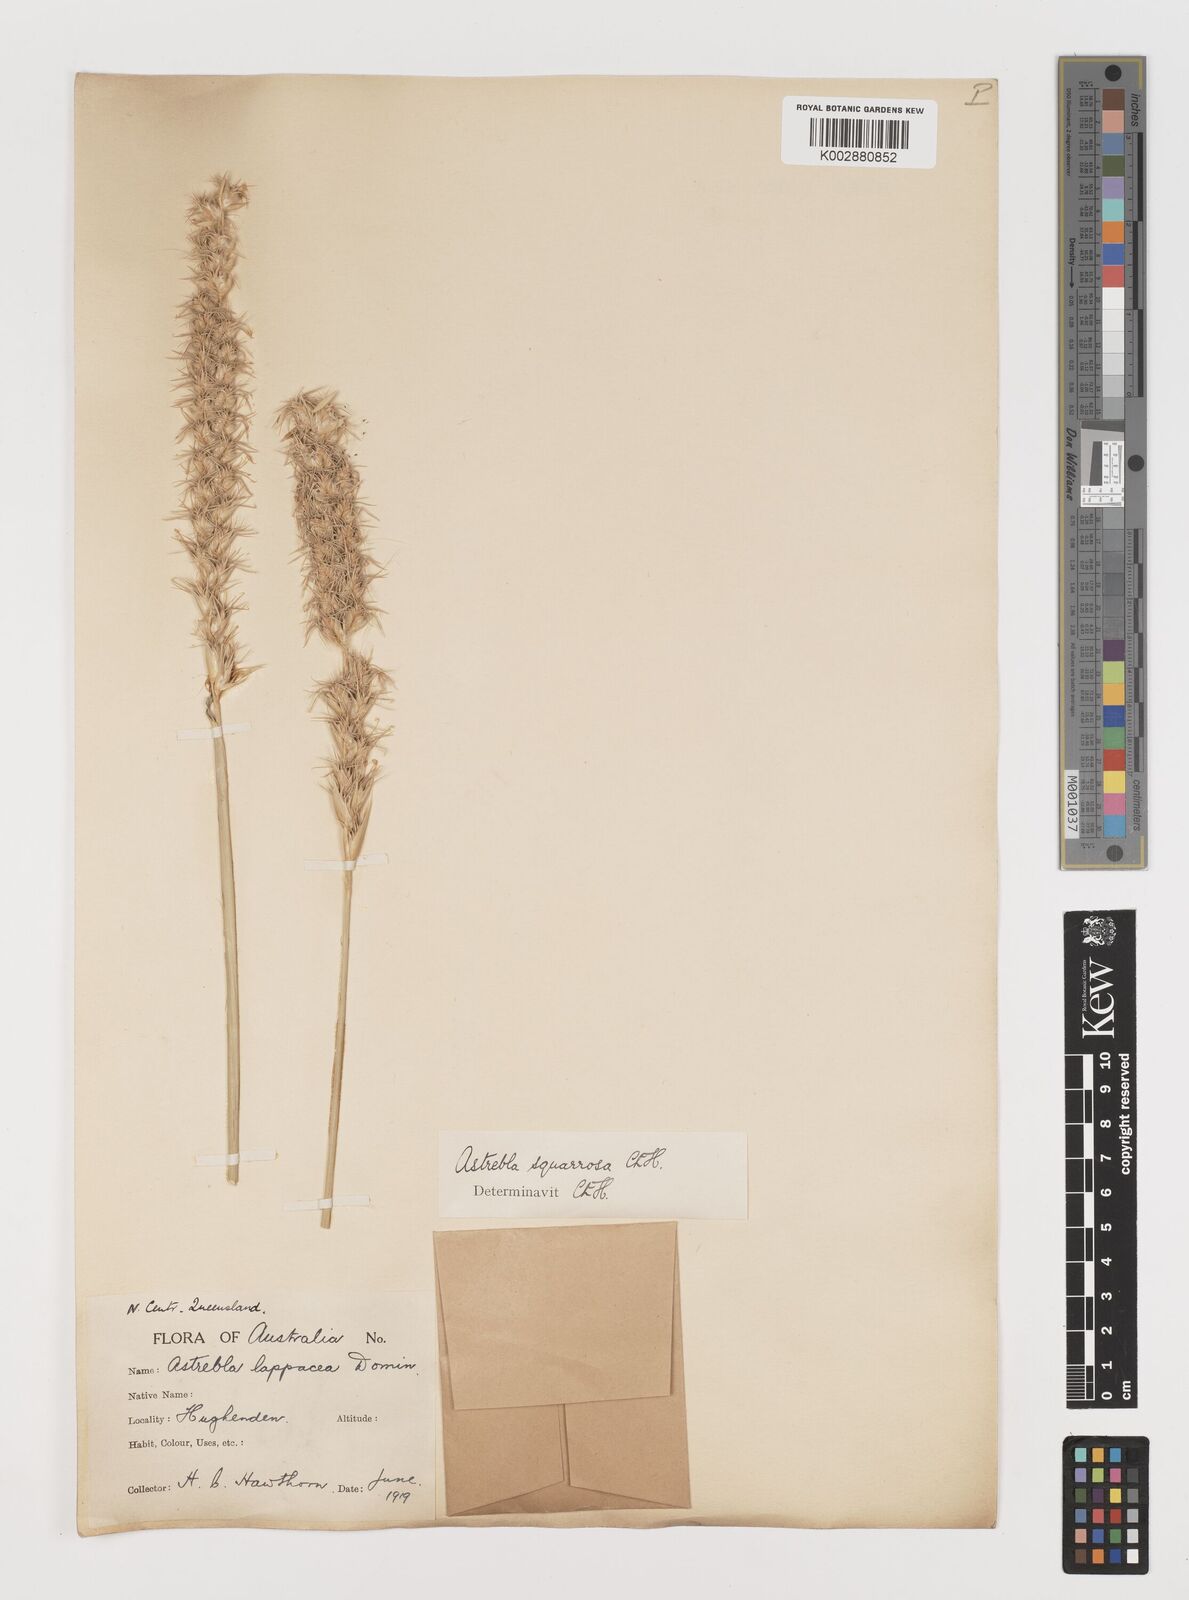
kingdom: Plantae
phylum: Tracheophyta
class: Liliopsida
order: Poales
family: Poaceae
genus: Astrebla
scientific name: Astrebla squarrosa
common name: Wheat-ear mitchell grass
